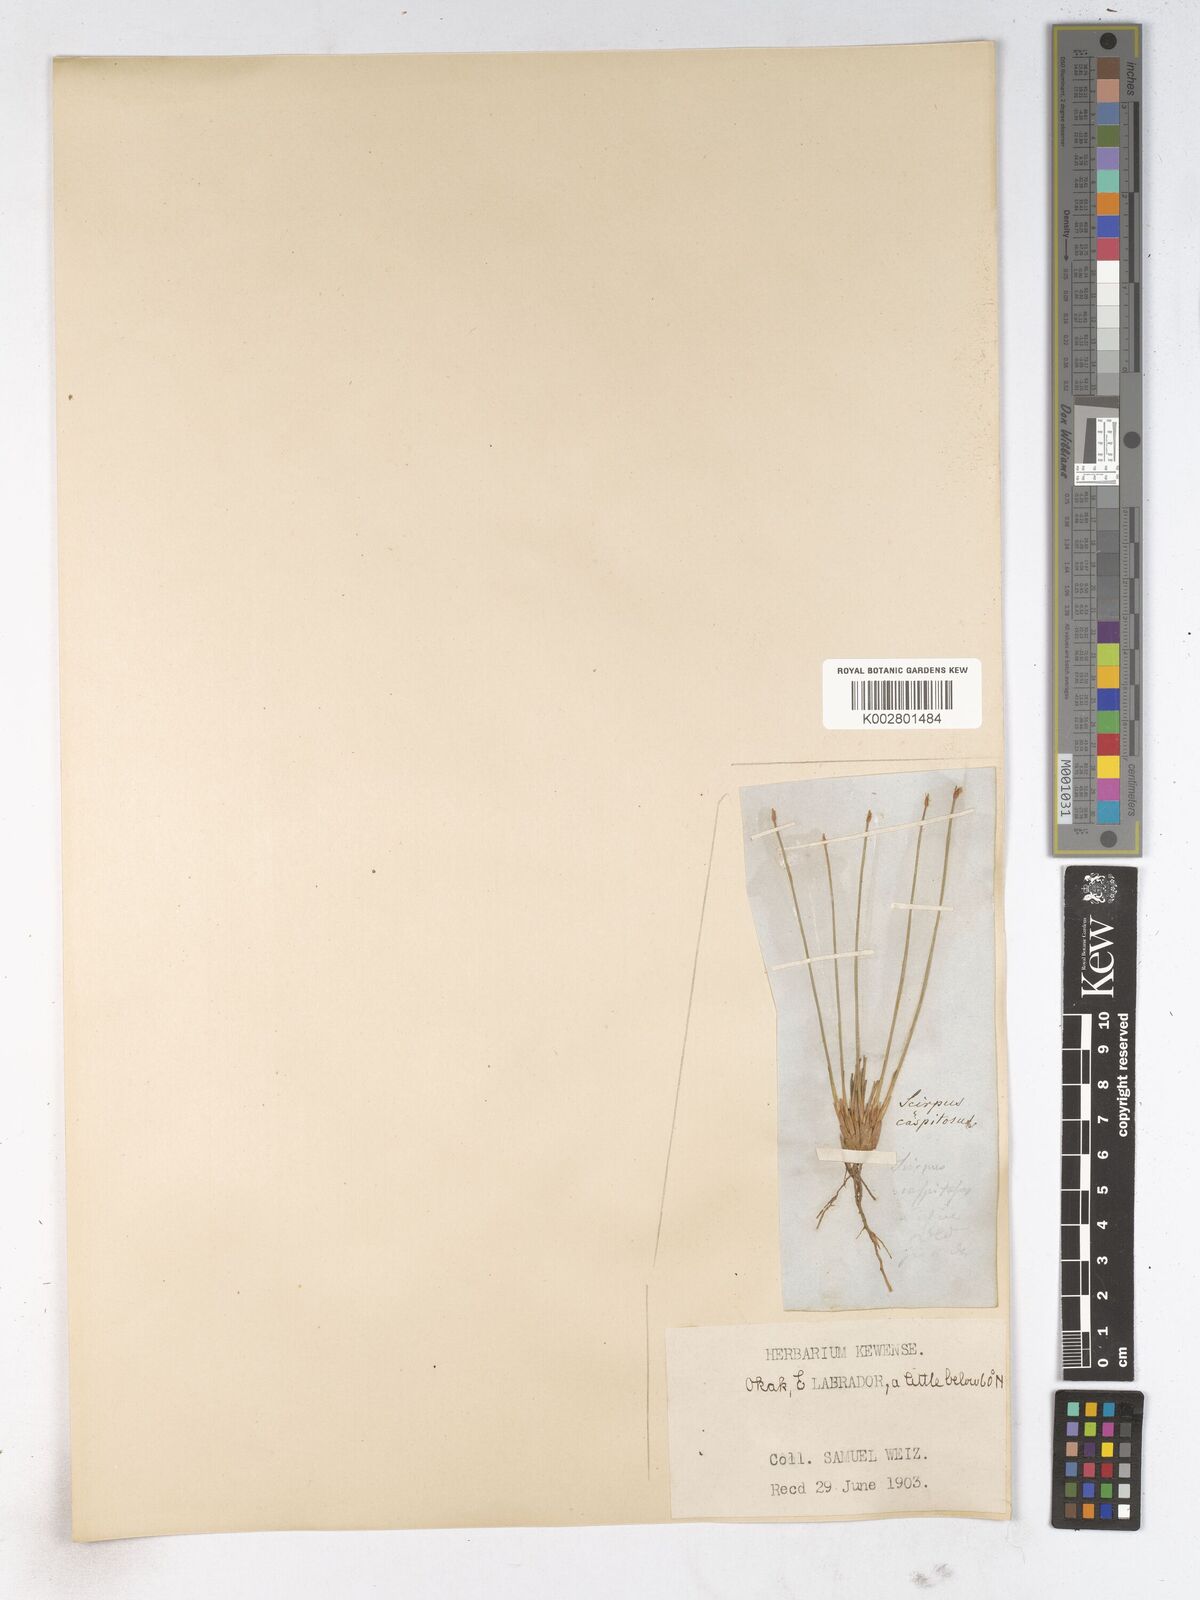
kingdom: Plantae
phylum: Tracheophyta
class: Liliopsida
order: Poales
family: Cyperaceae
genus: Trichophorum
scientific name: Trichophorum cespitosum
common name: Cespitose bulrush
